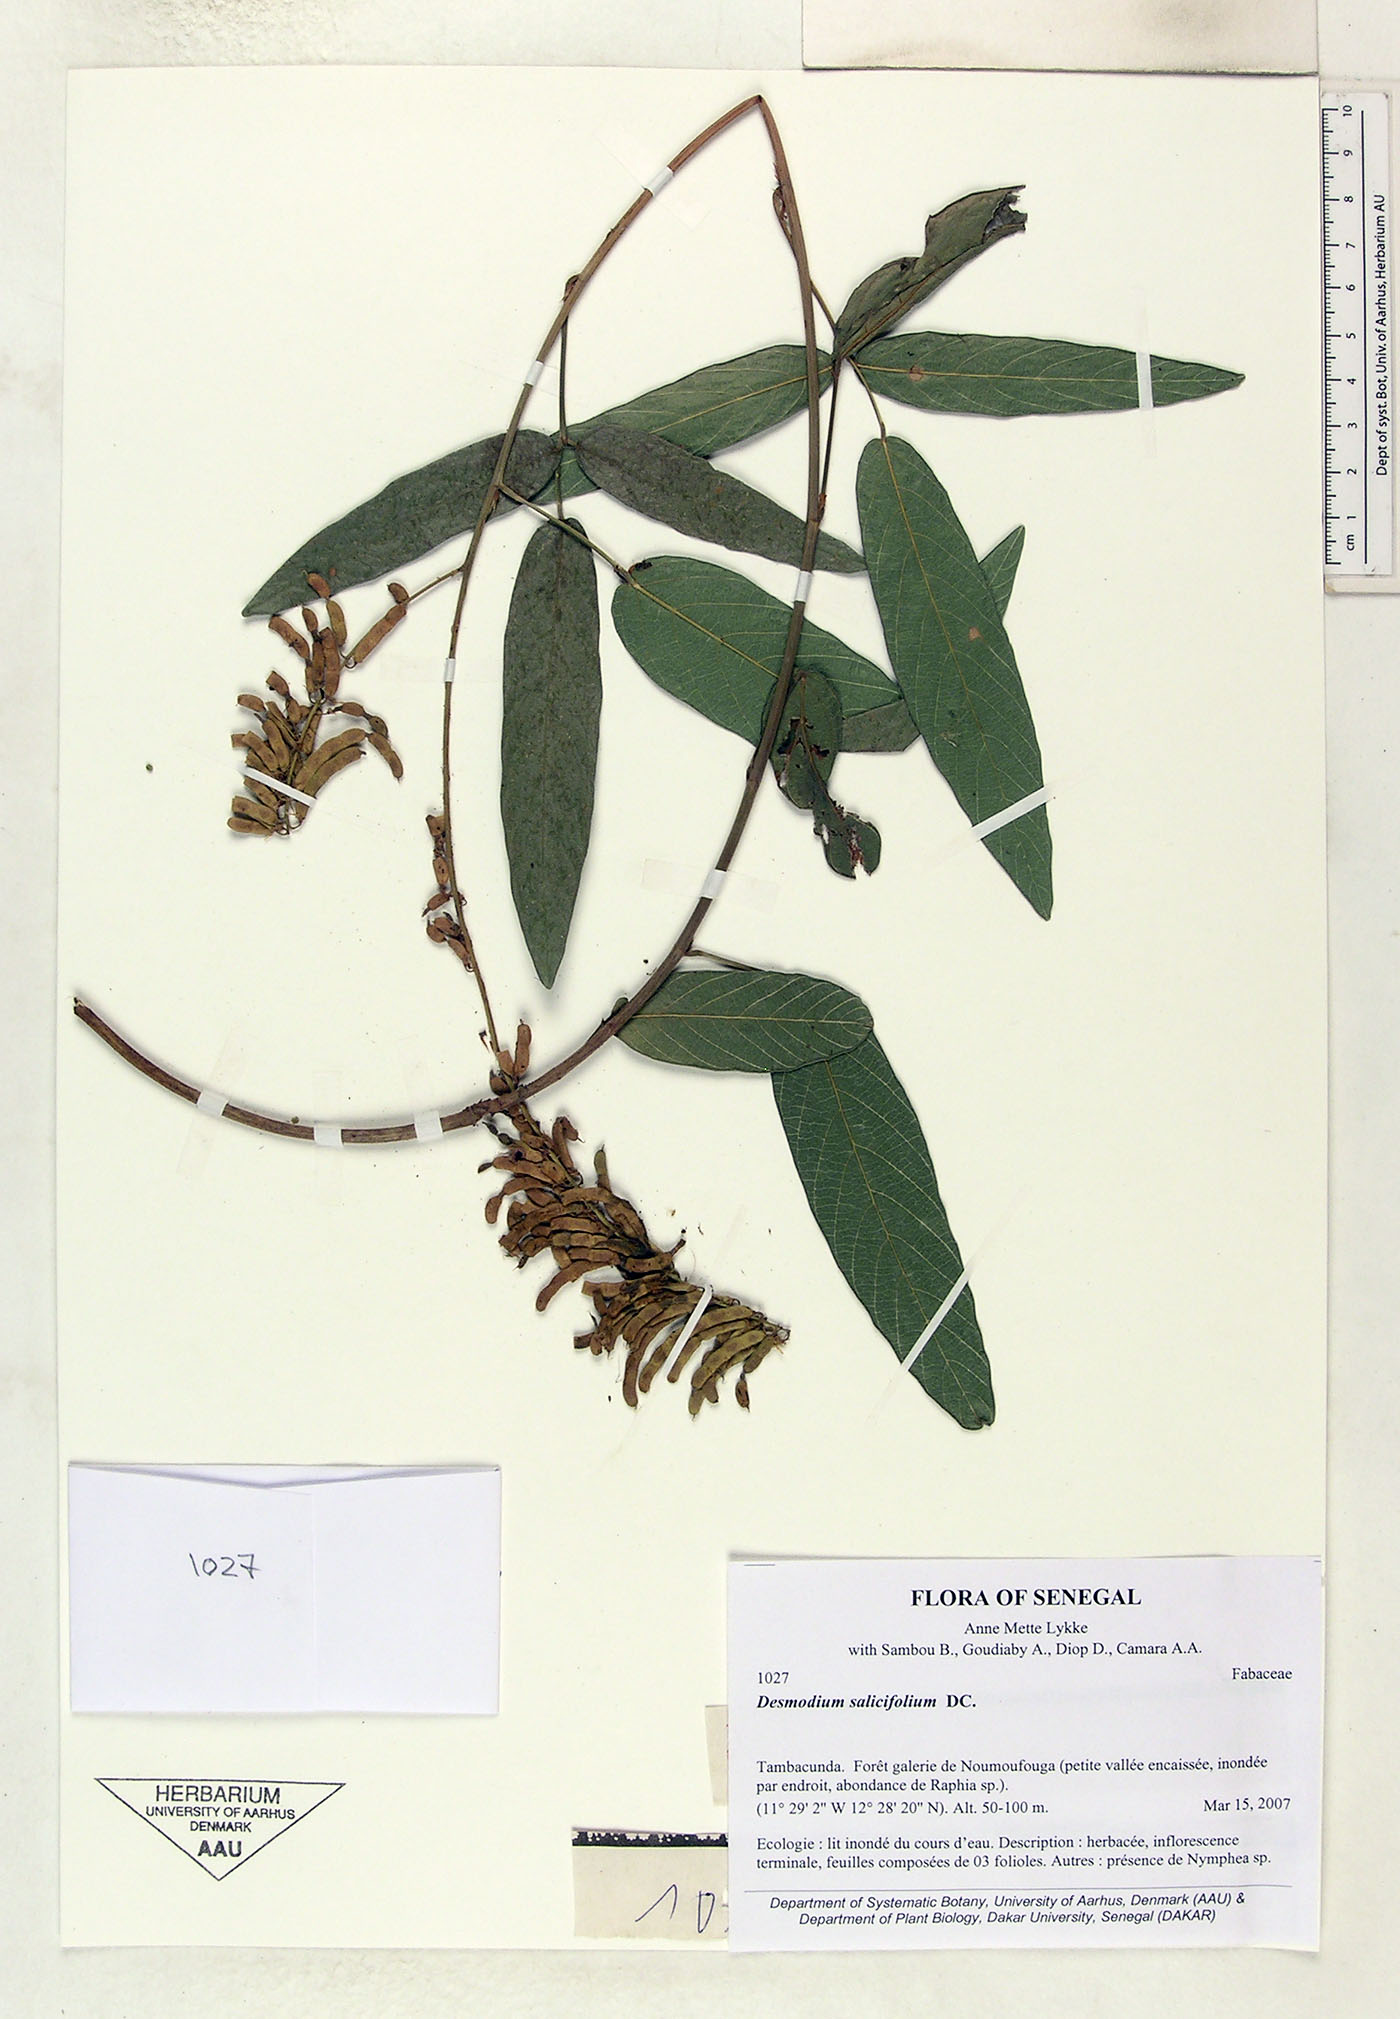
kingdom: Plantae
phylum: Tracheophyta
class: Magnoliopsida
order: Fabales
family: Fabaceae
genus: Pleurolobus
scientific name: Pleurolobus salicifolius
